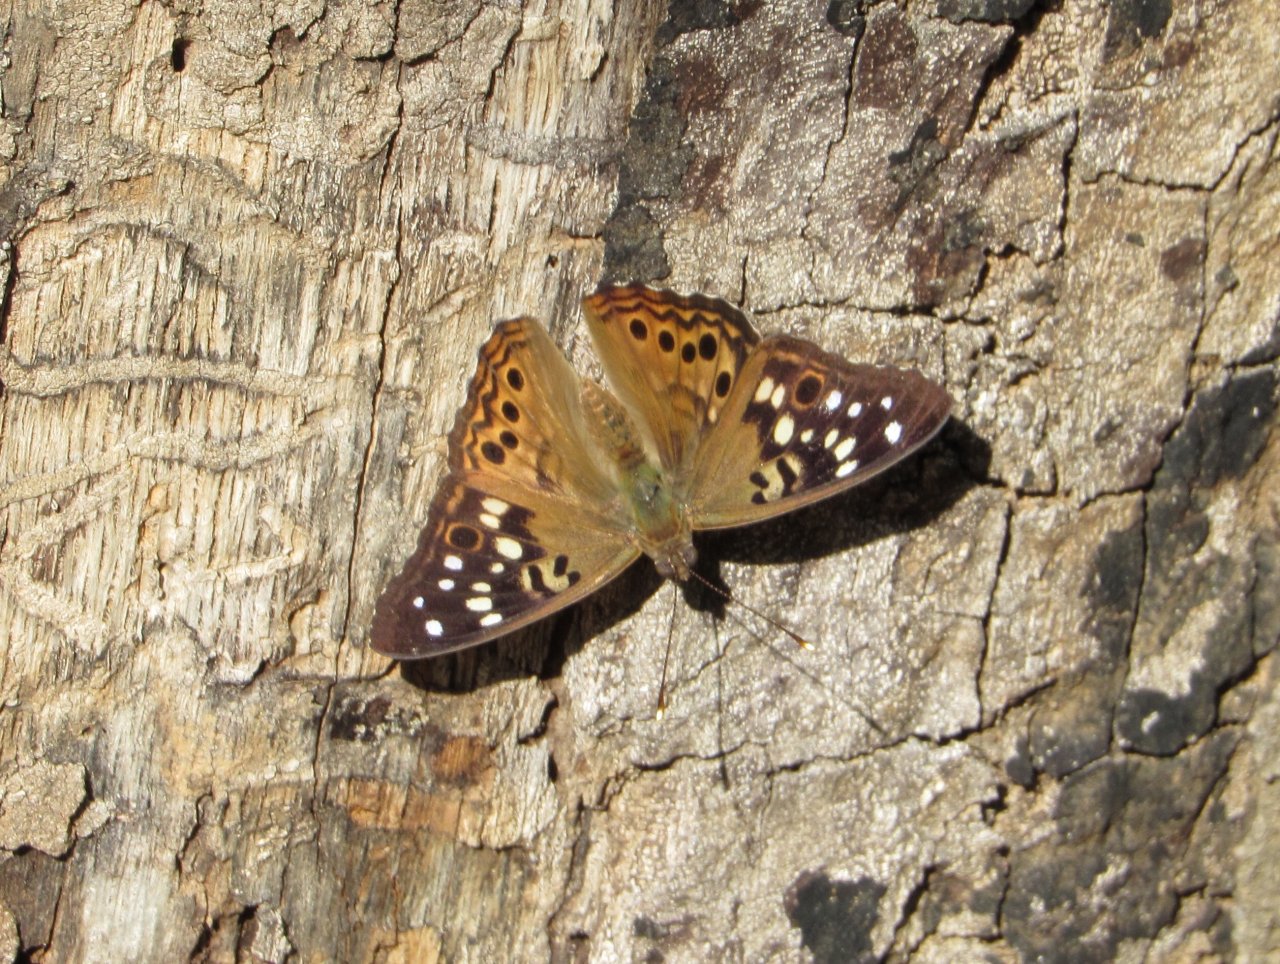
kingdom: Animalia
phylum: Arthropoda
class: Insecta
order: Lepidoptera
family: Nymphalidae
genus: Asterocampa
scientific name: Asterocampa celtis
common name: Hackberry Emperor
